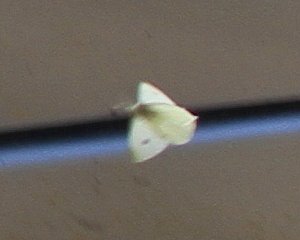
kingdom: Animalia
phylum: Arthropoda
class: Insecta
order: Lepidoptera
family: Pieridae
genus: Pieris
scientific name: Pieris rapae
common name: Cabbage White
